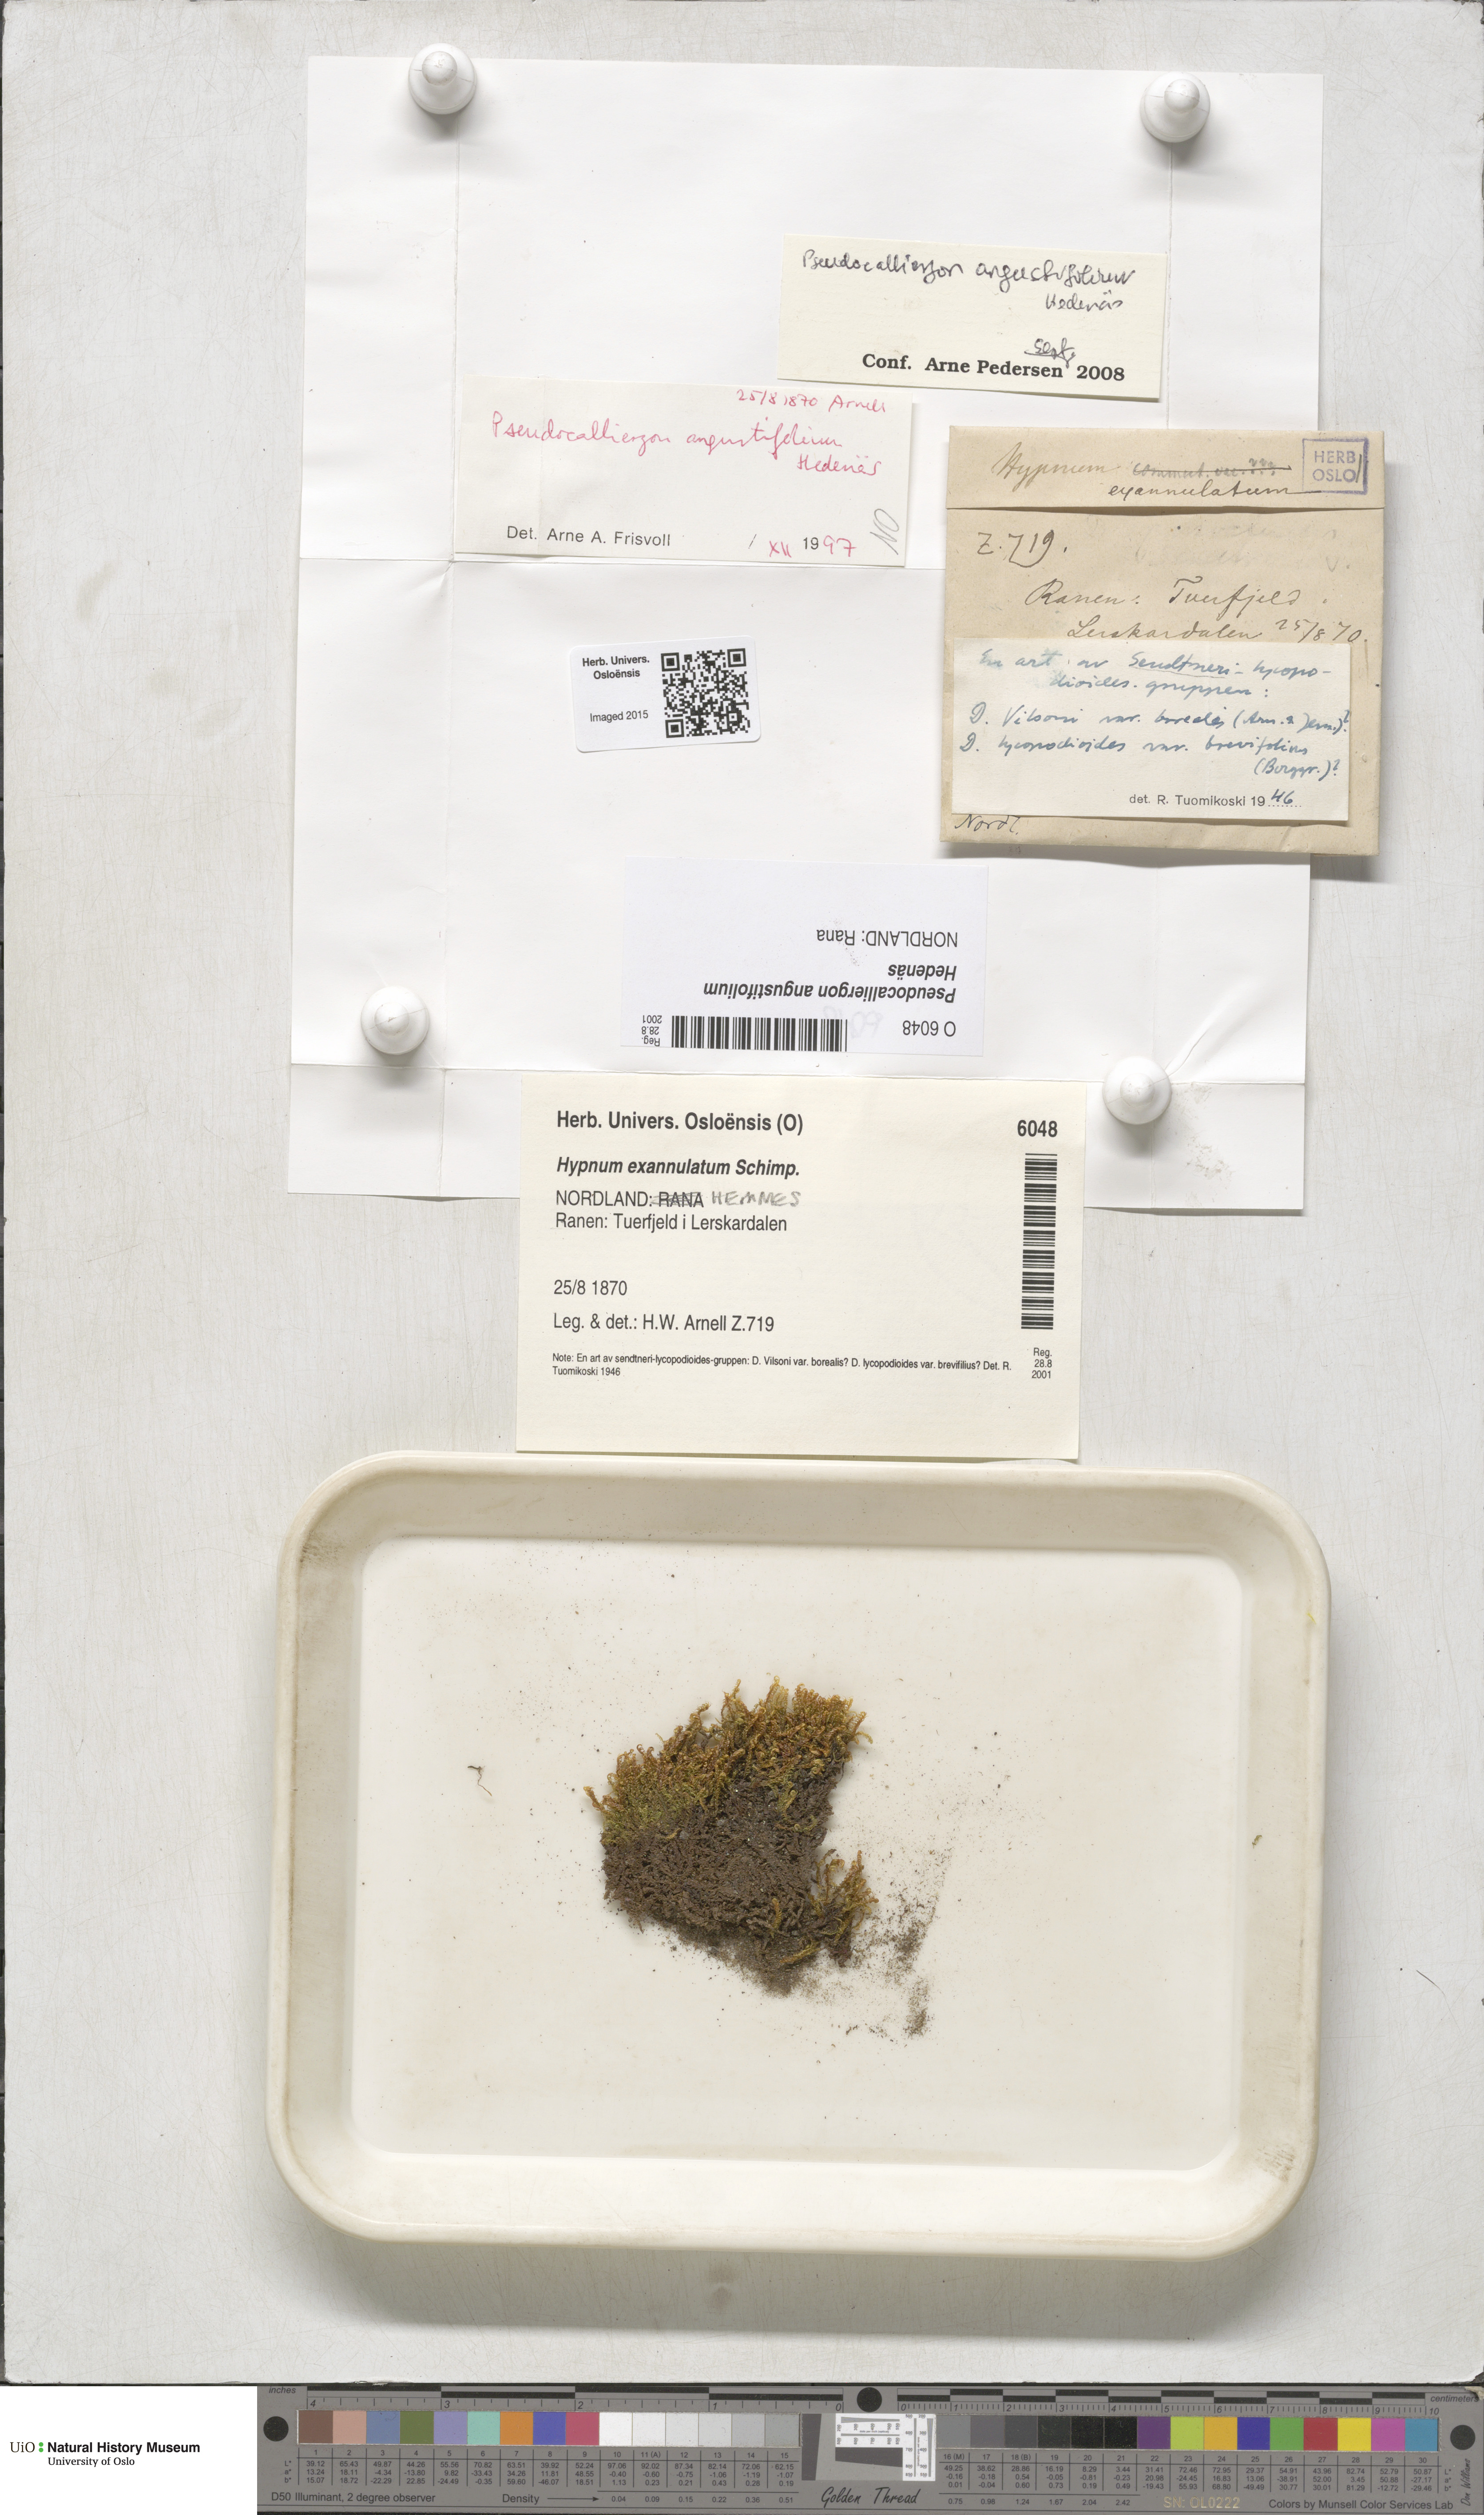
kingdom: Plantae
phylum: Bryophyta
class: Bryopsida
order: Hypnales
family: Amblystegiaceae
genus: Drepanocladus
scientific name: Drepanocladus angustifolius
